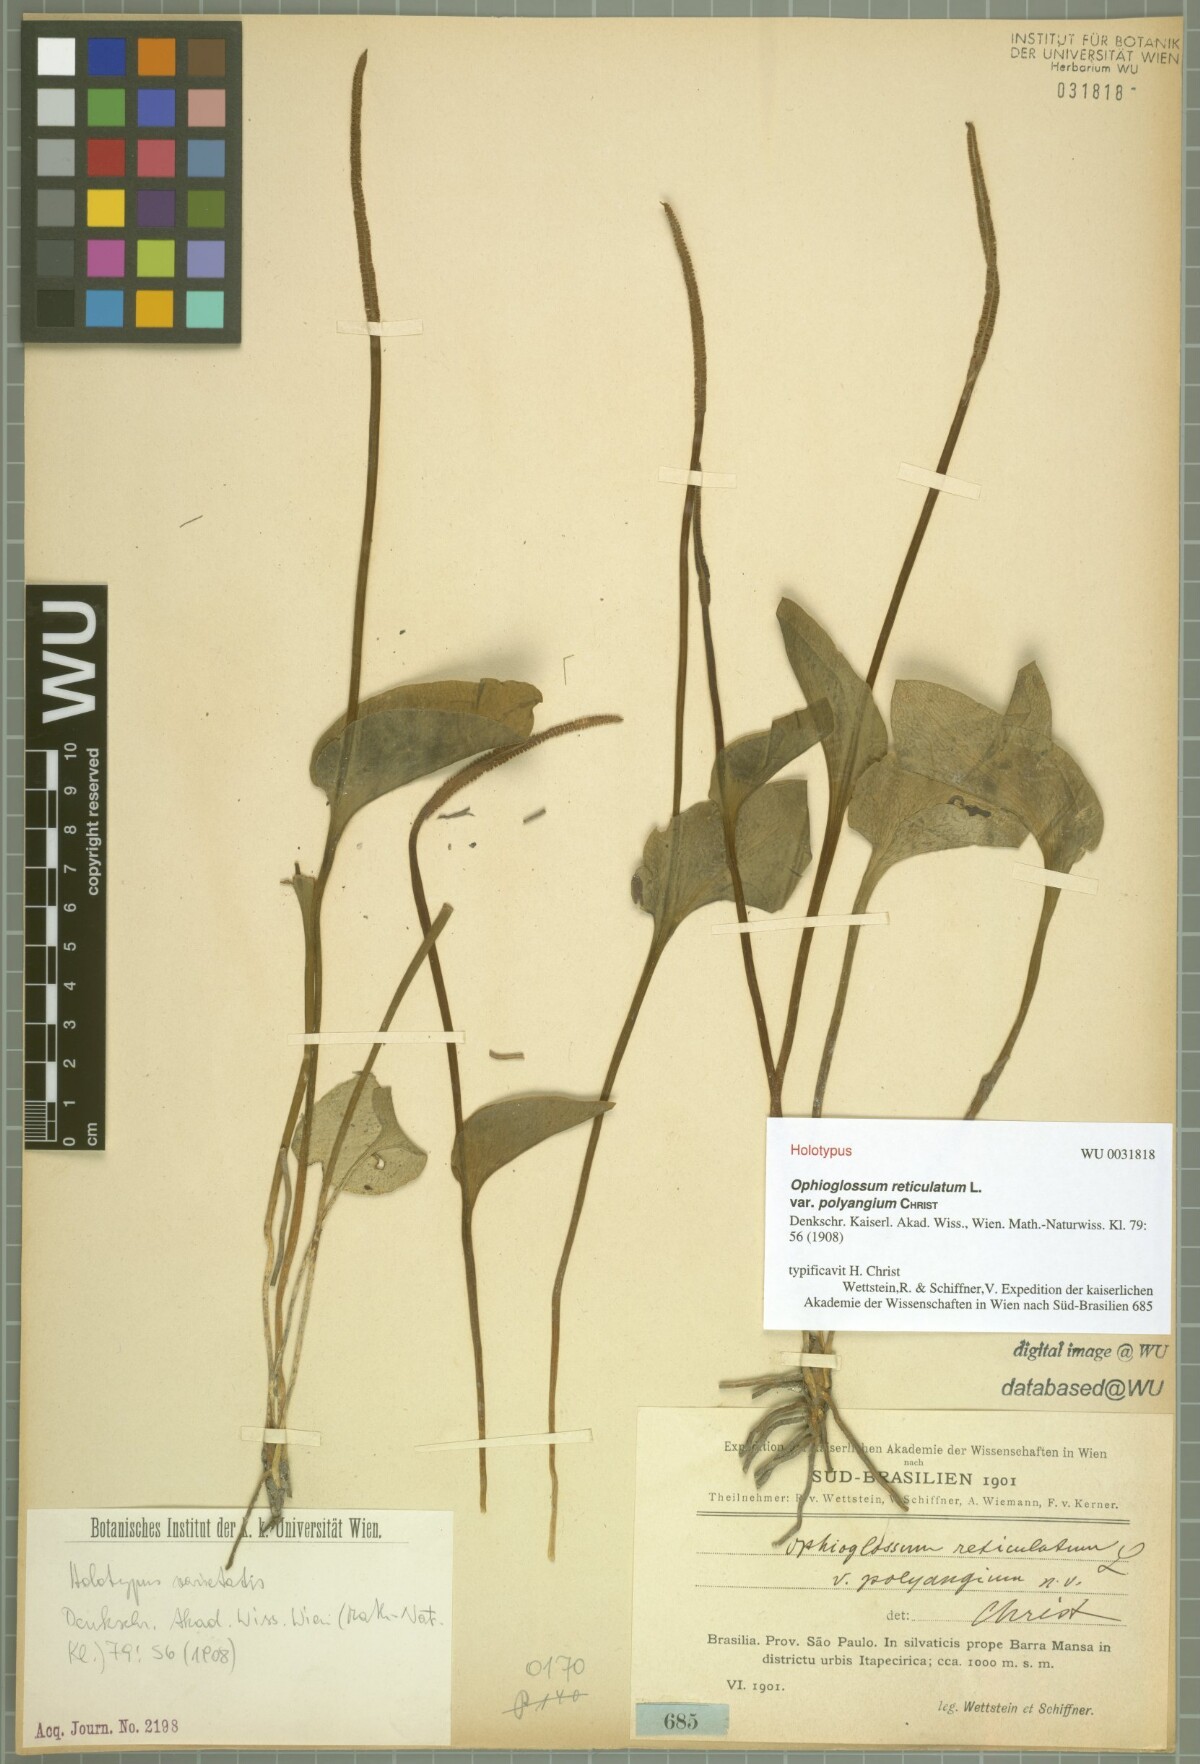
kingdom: Plantae
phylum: Tracheophyta
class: Polypodiopsida
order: Ophioglossales
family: Ophioglossaceae
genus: Ophioglossum
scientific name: Ophioglossum reticulatum
